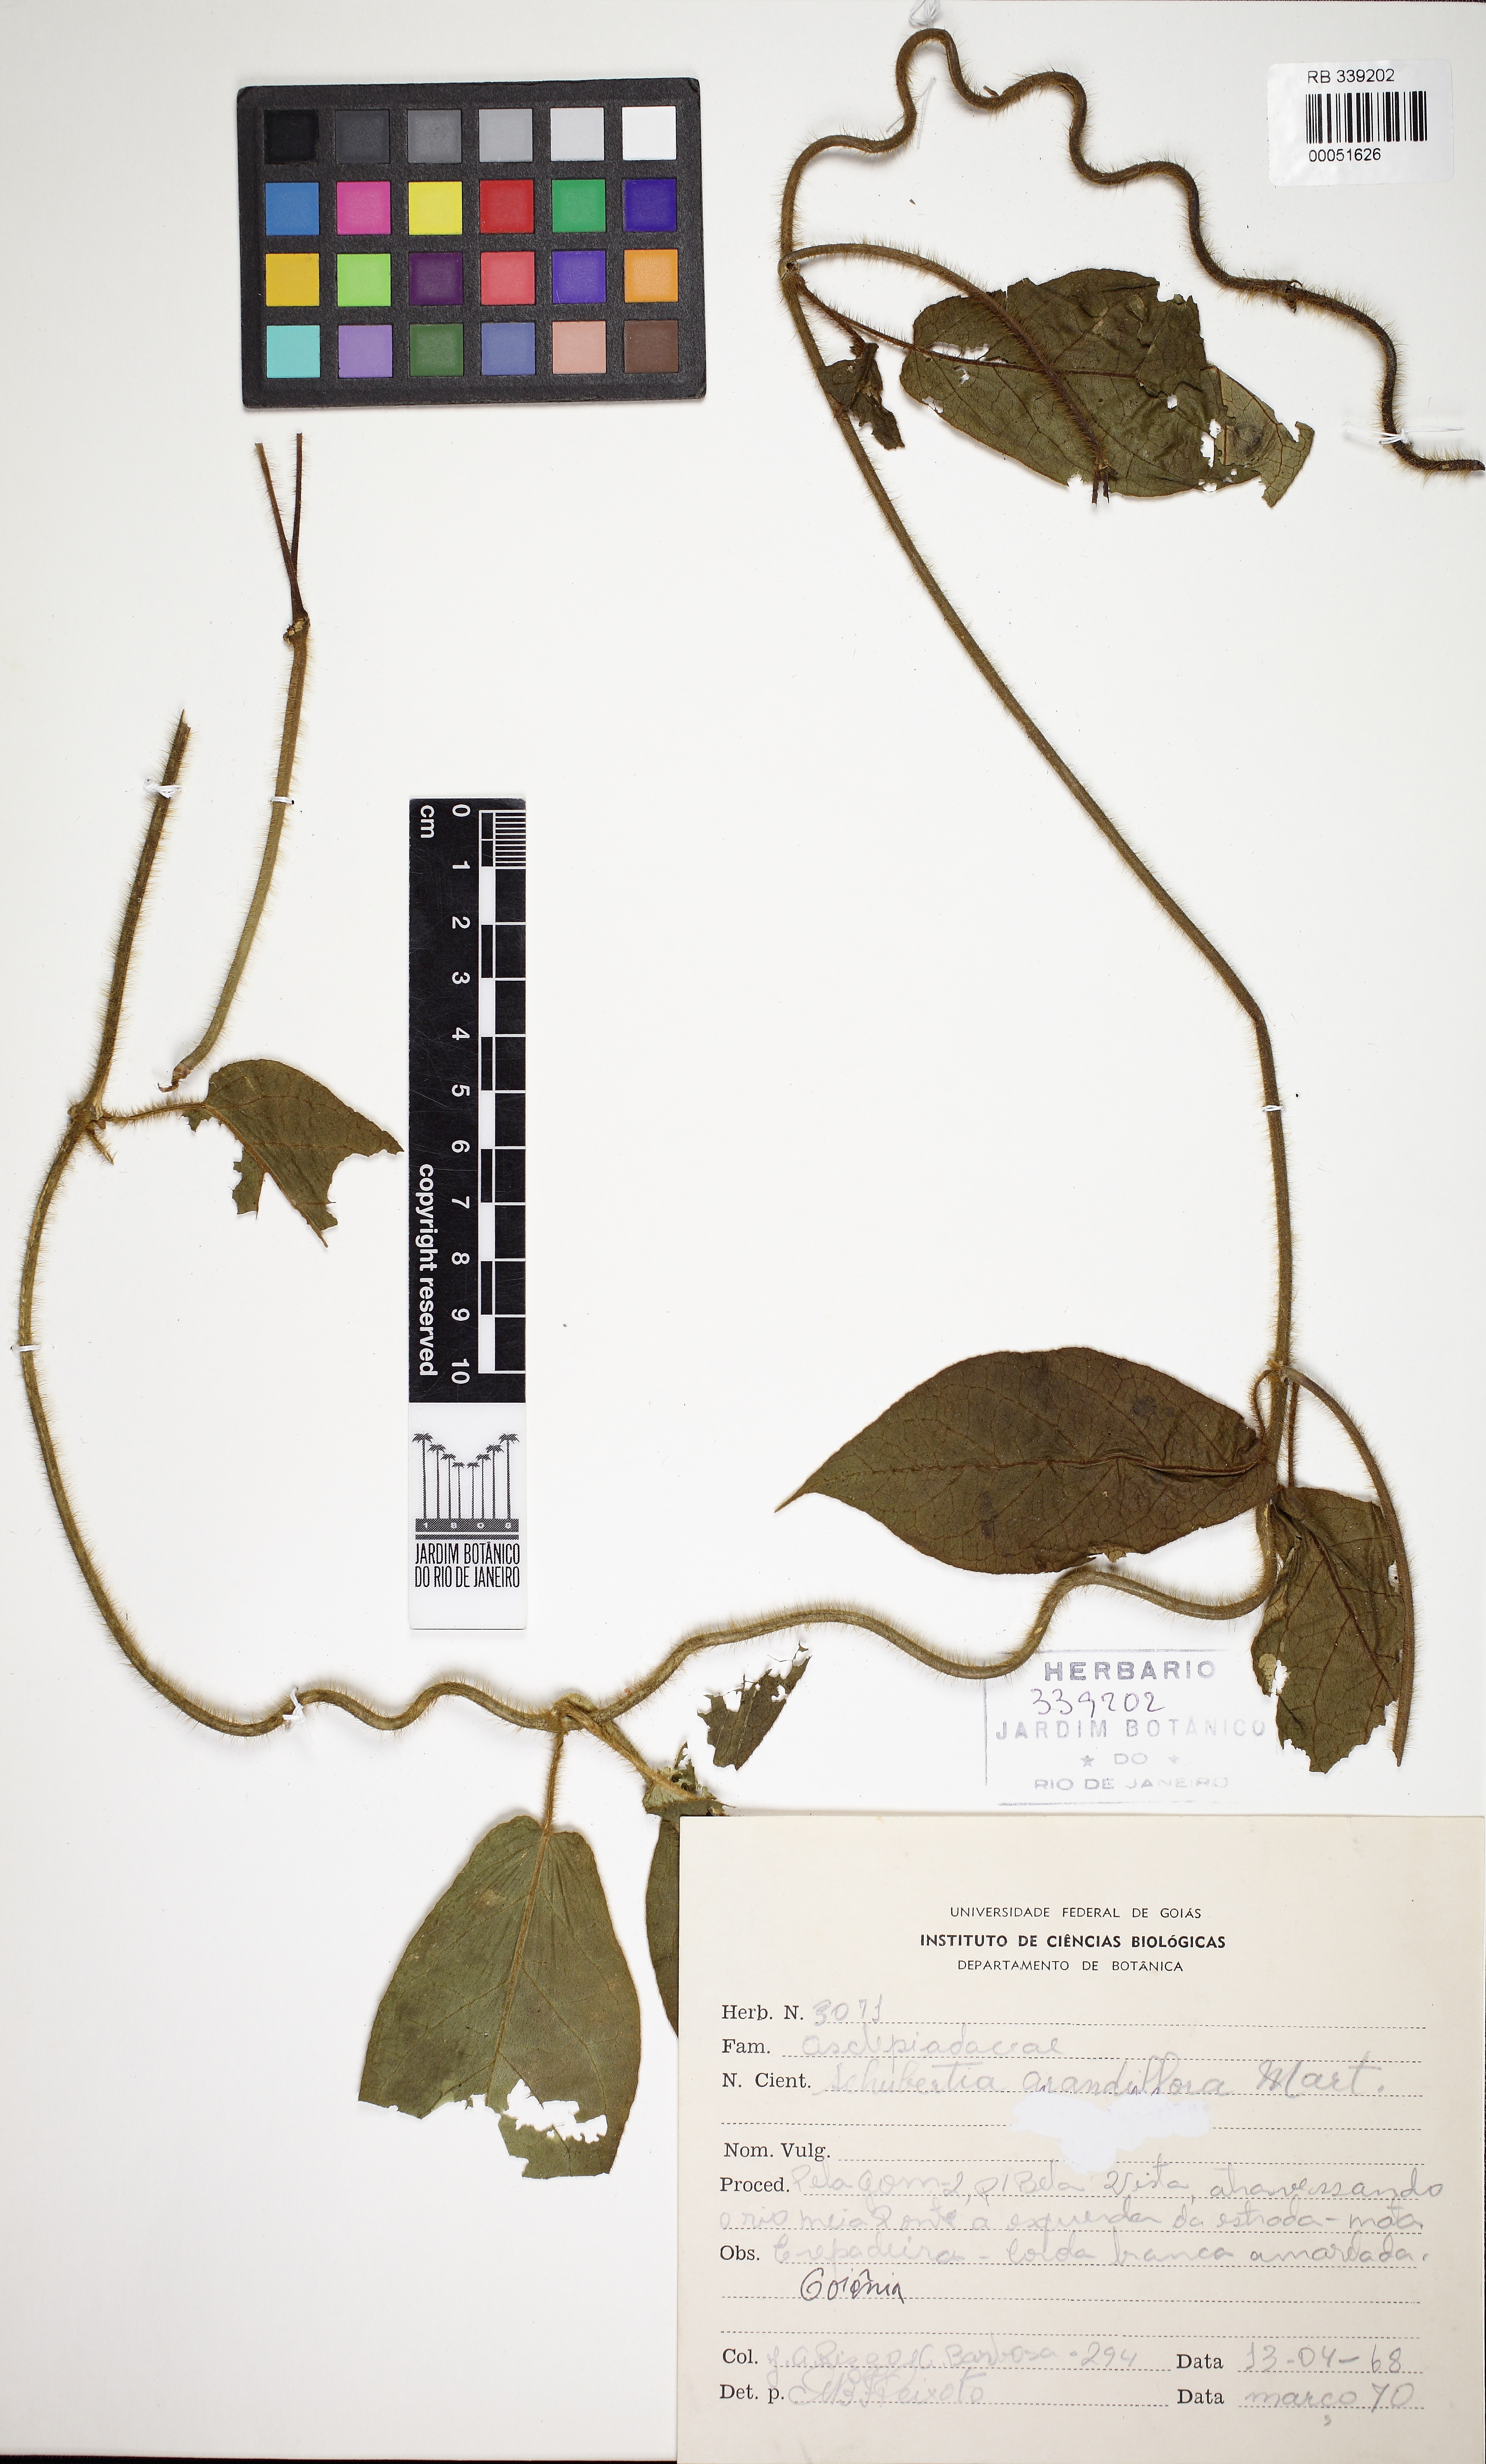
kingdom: Plantae
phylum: Tracheophyta
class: Magnoliopsida
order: Gentianales
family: Apocynaceae
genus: Macroscepis
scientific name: Macroscepis grandiflora
